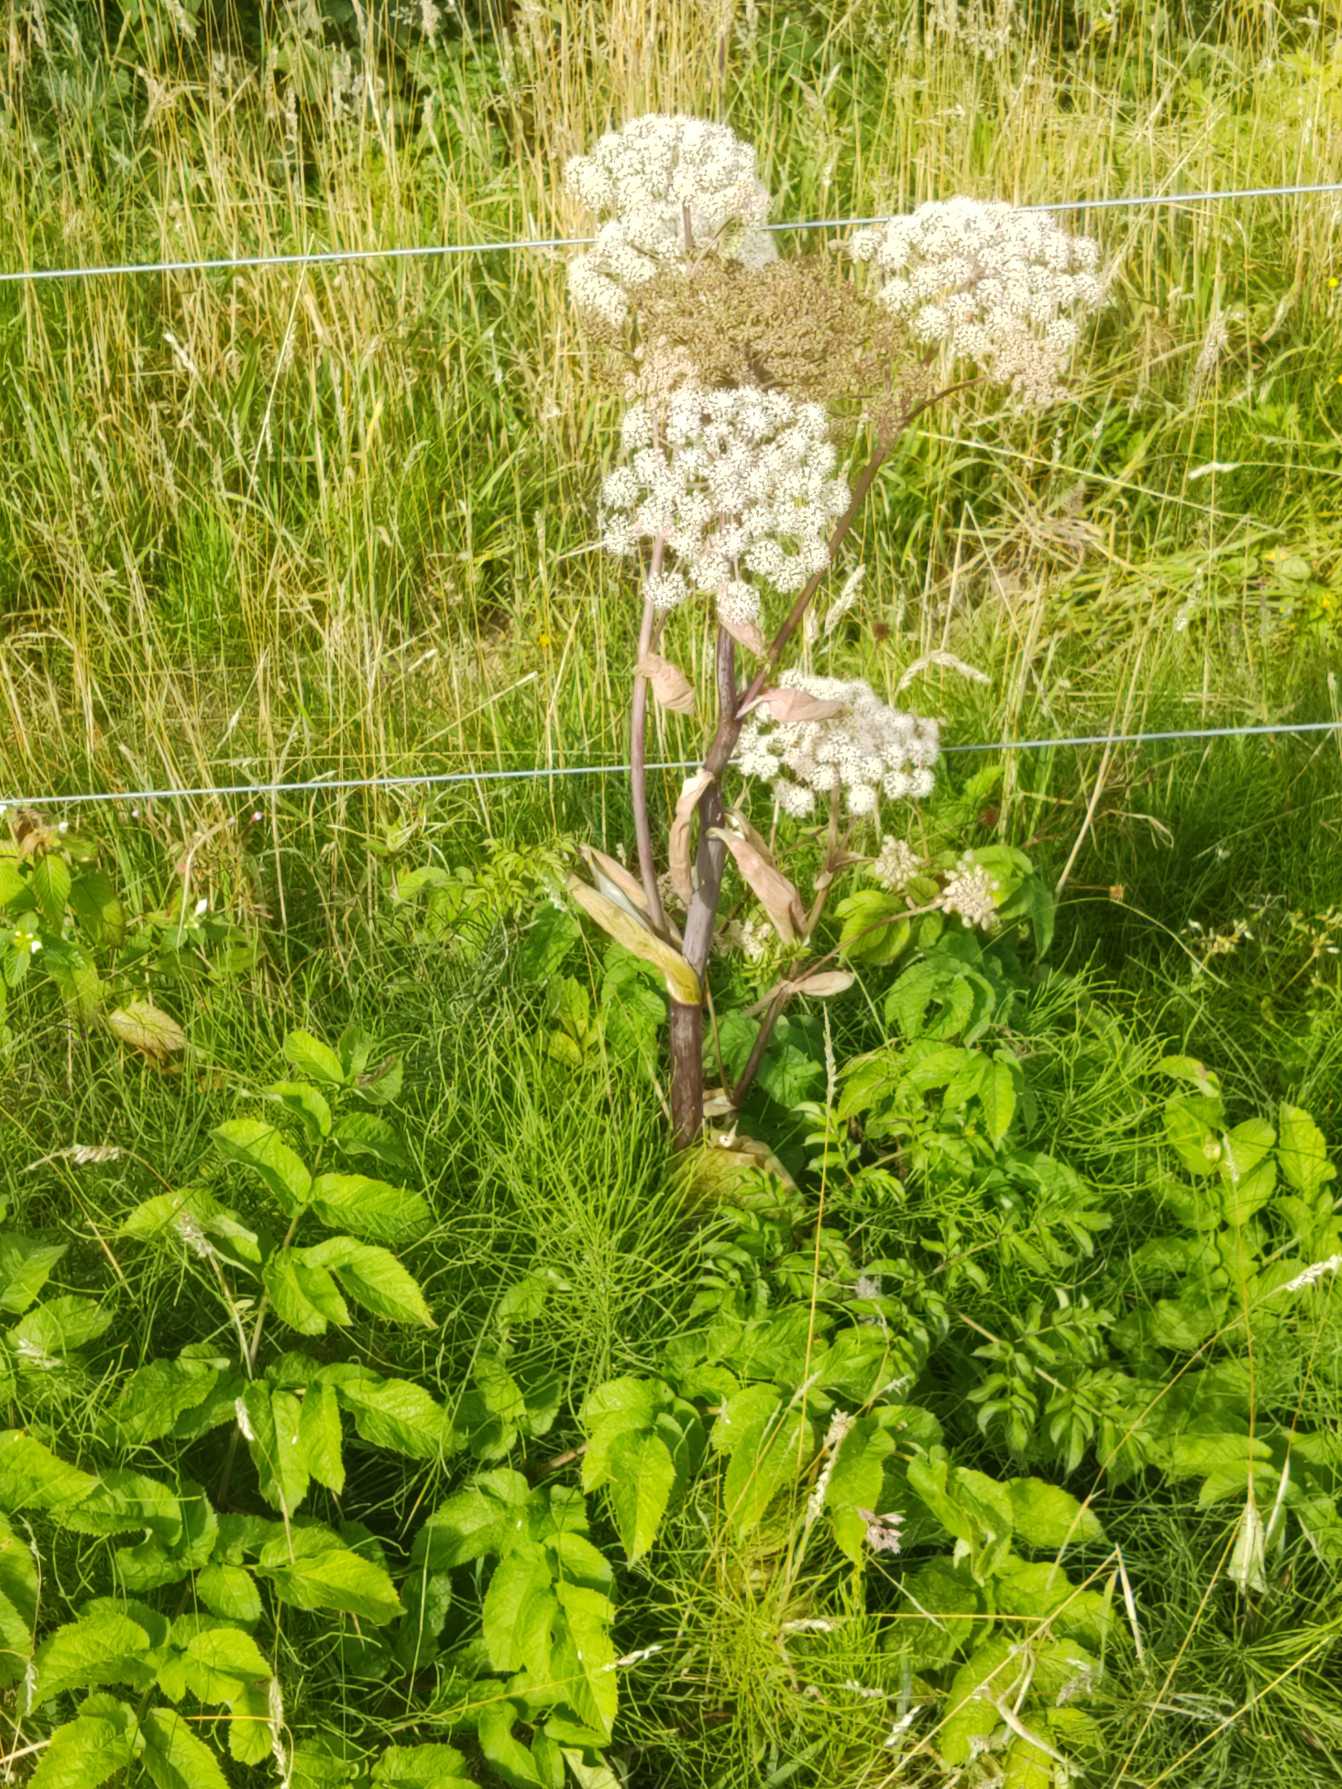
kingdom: Plantae
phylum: Tracheophyta
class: Magnoliopsida
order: Apiales
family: Apiaceae
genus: Angelica
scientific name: Angelica sylvestris
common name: Angelik
